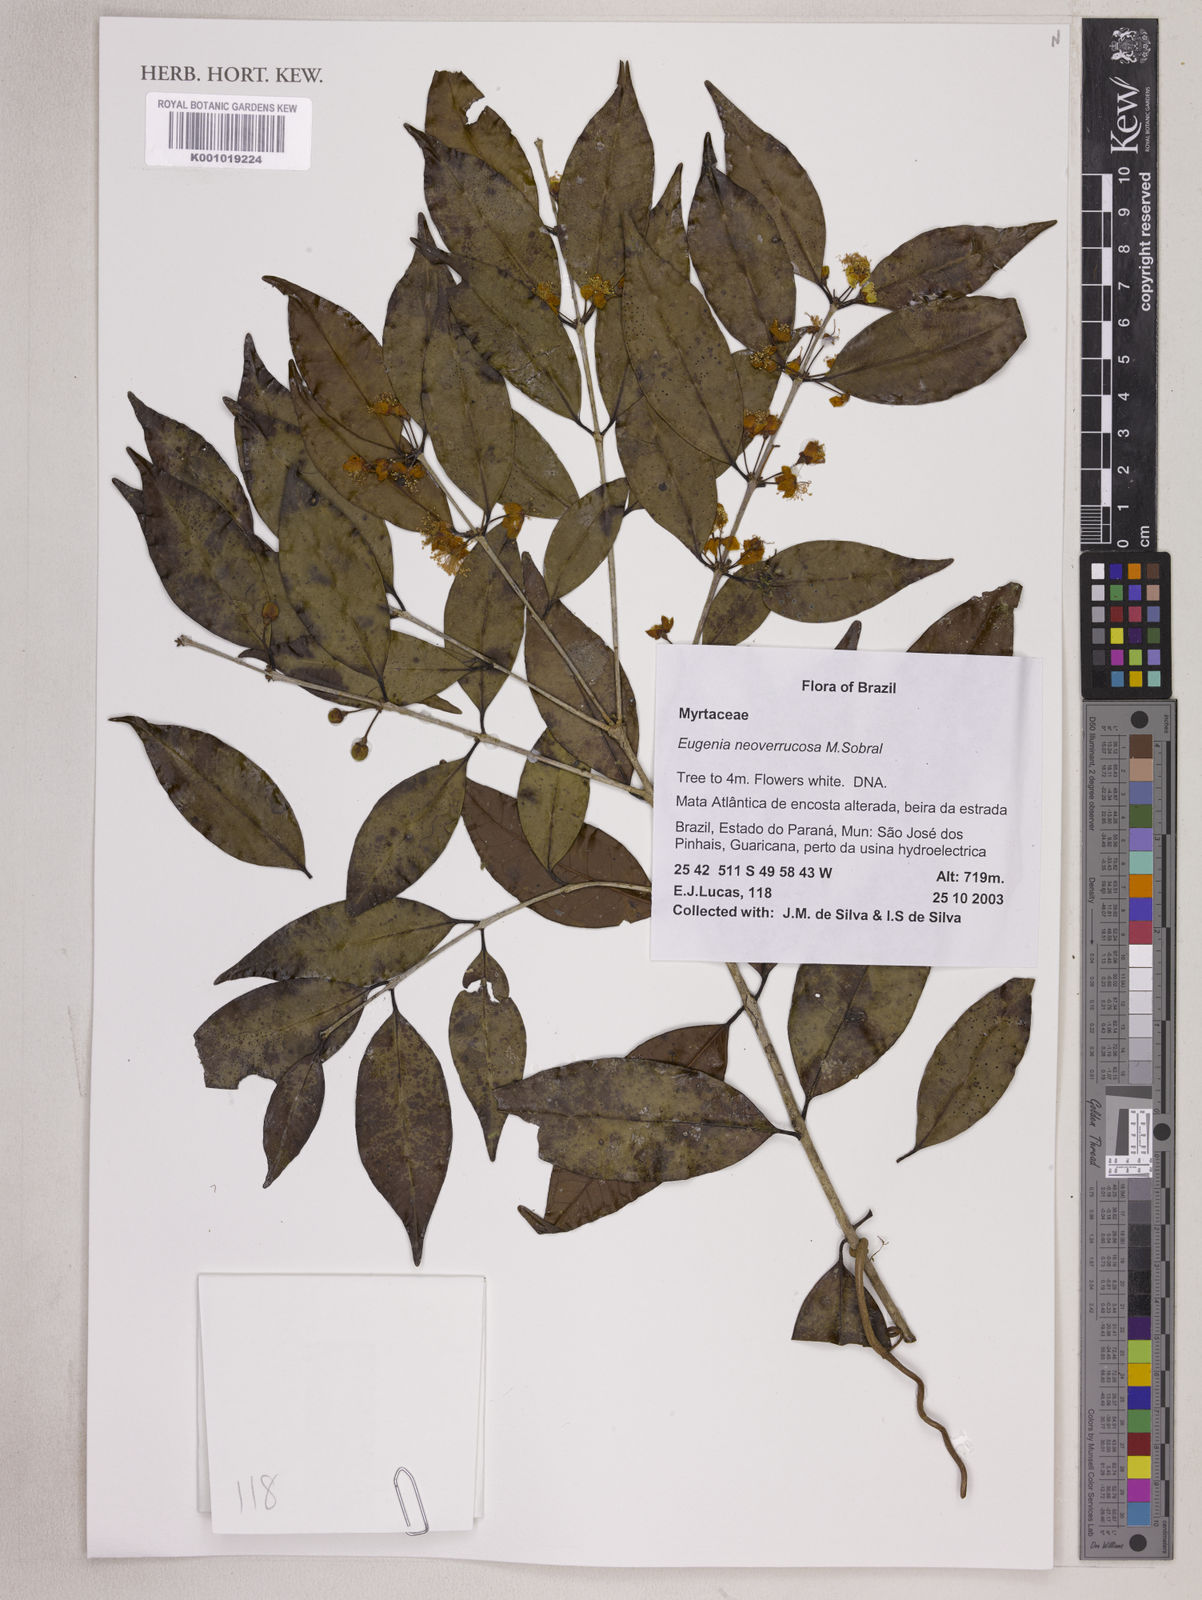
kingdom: Plantae
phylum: Tracheophyta
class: Magnoliopsida
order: Myrtales
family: Myrtaceae
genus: Eugenia
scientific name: Eugenia neoverrucosa
